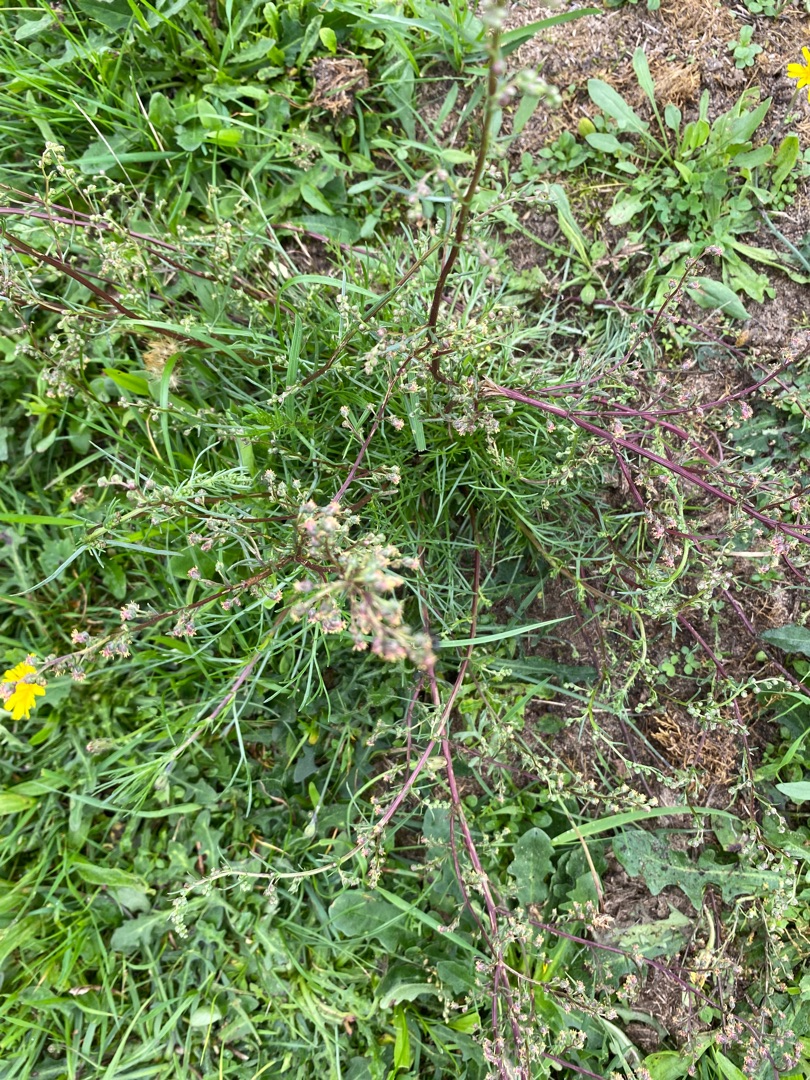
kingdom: Plantae
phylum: Tracheophyta
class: Magnoliopsida
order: Asterales
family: Asteraceae
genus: Artemisia
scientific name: Artemisia campestris
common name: Mark-bynke
